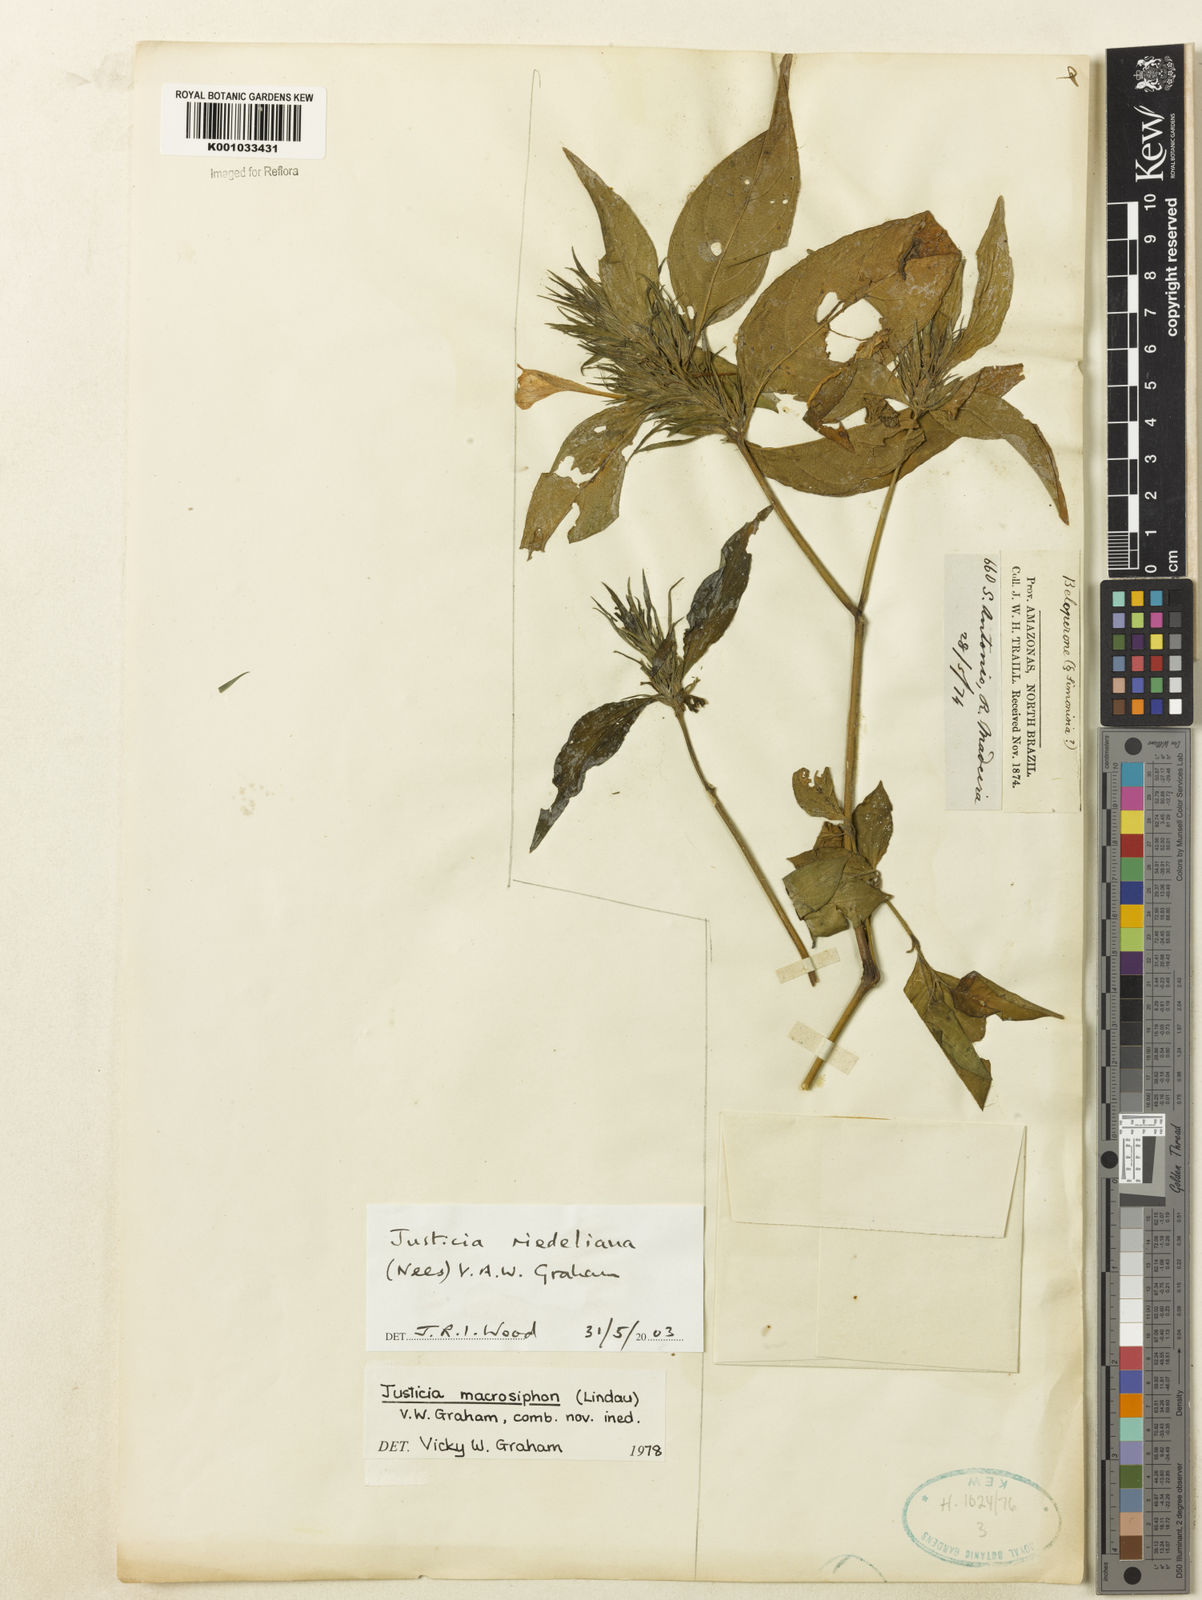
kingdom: Plantae
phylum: Tracheophyta
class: Magnoliopsida
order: Lamiales
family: Acanthaceae
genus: Justicia
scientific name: Justicia riedeliana
